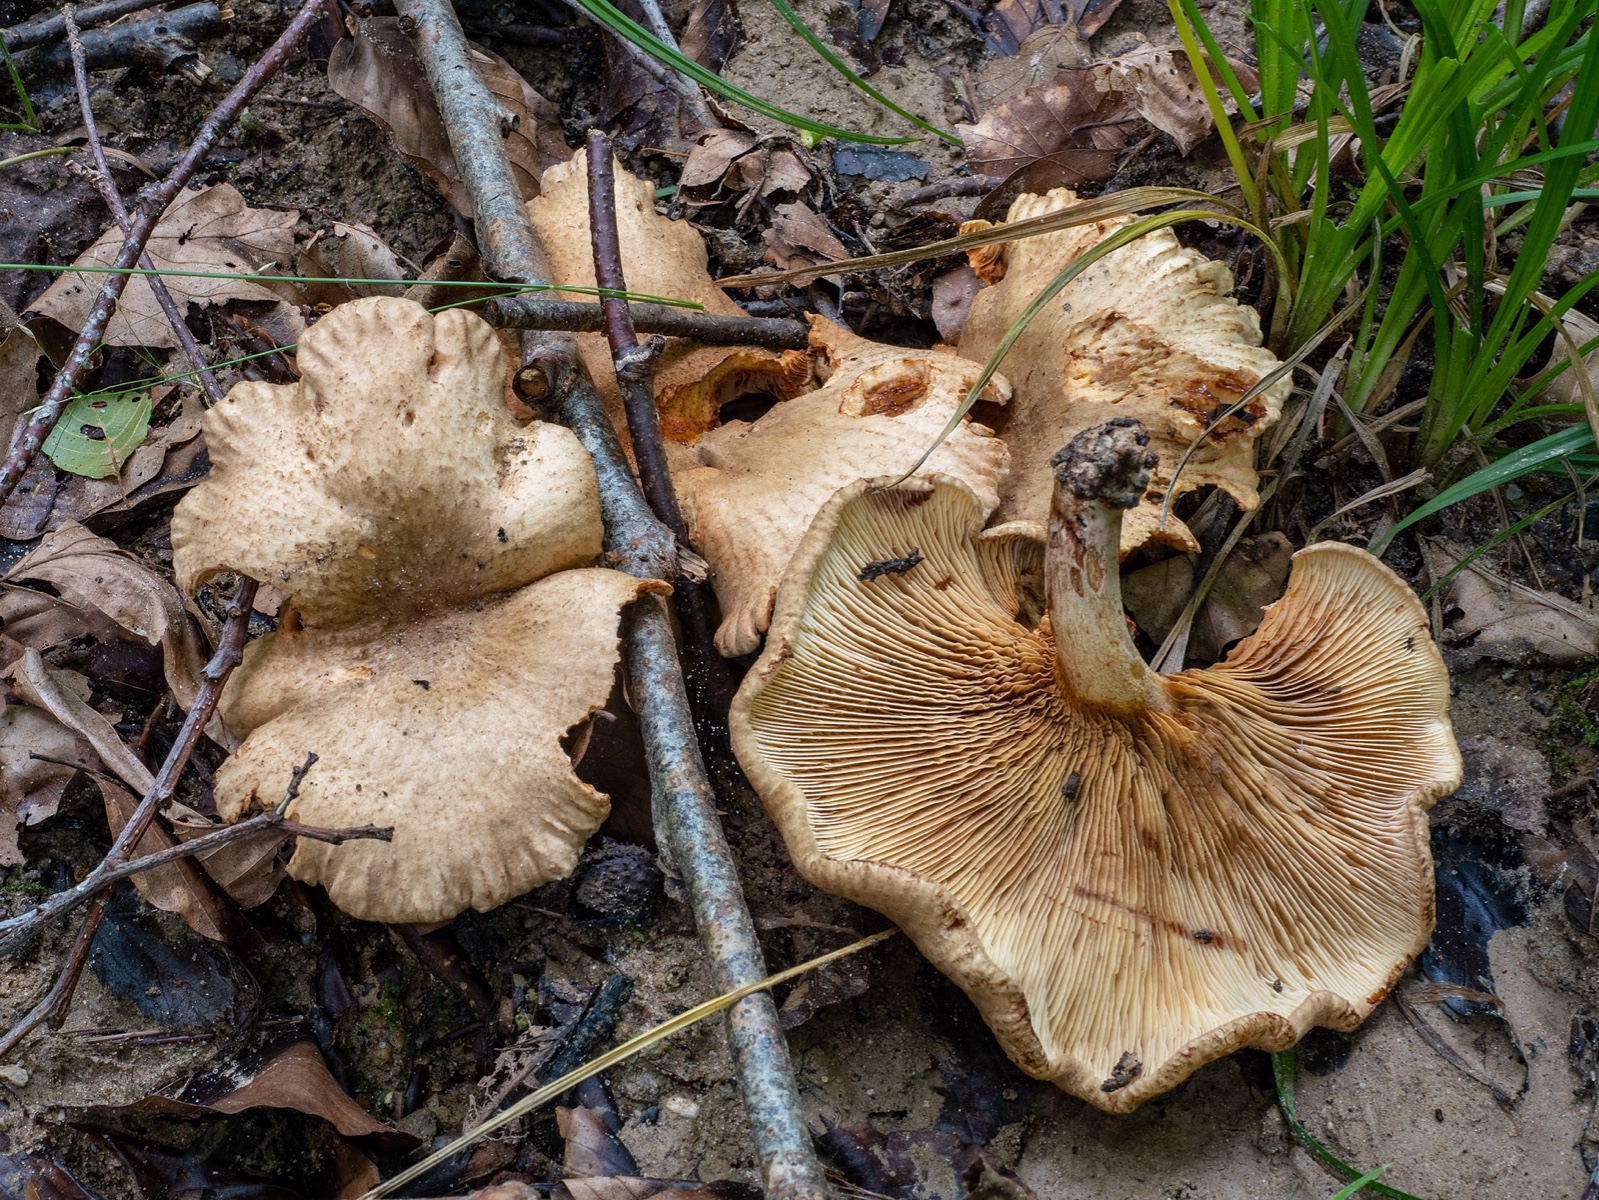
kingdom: Fungi
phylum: Basidiomycota
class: Agaricomycetes
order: Boletales
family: Paxillaceae
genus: Paxillus
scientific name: Paxillus olivellus
